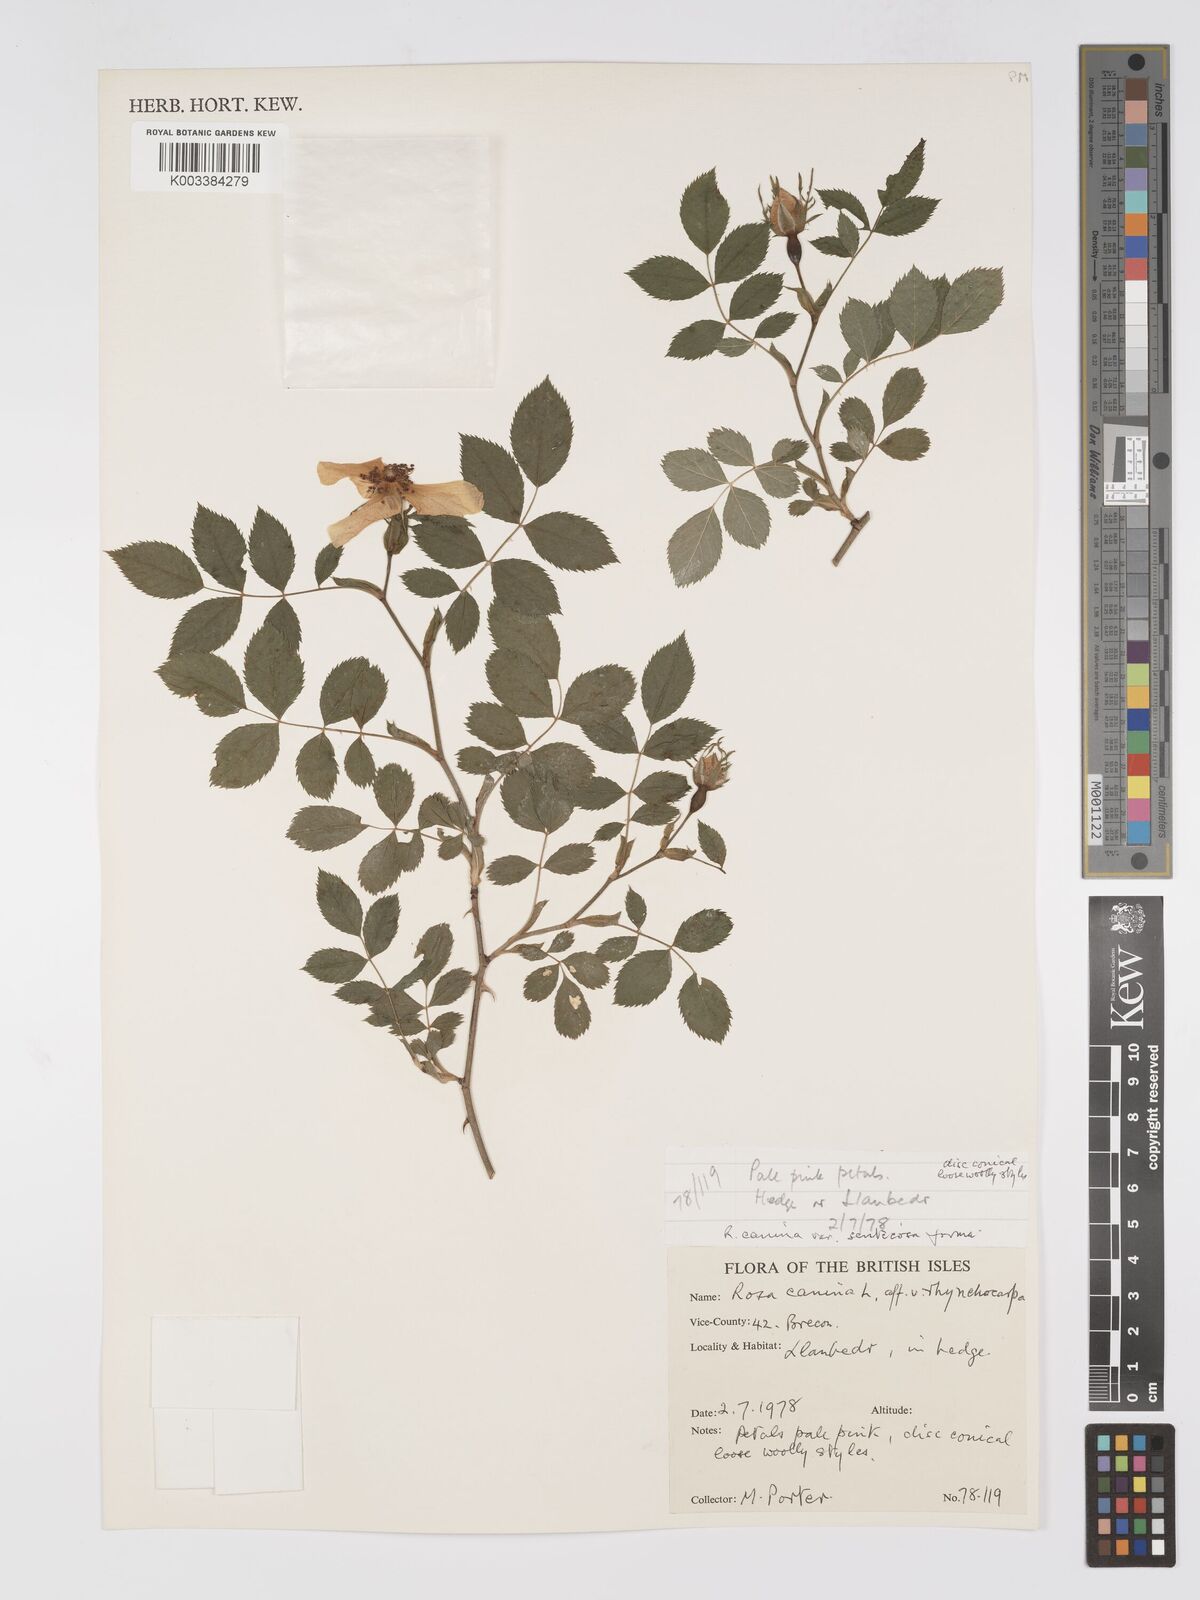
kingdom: Plantae
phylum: Tracheophyta
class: Magnoliopsida
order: Rosales
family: Rosaceae
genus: Rosa
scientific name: Rosa canina
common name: Dog rose
